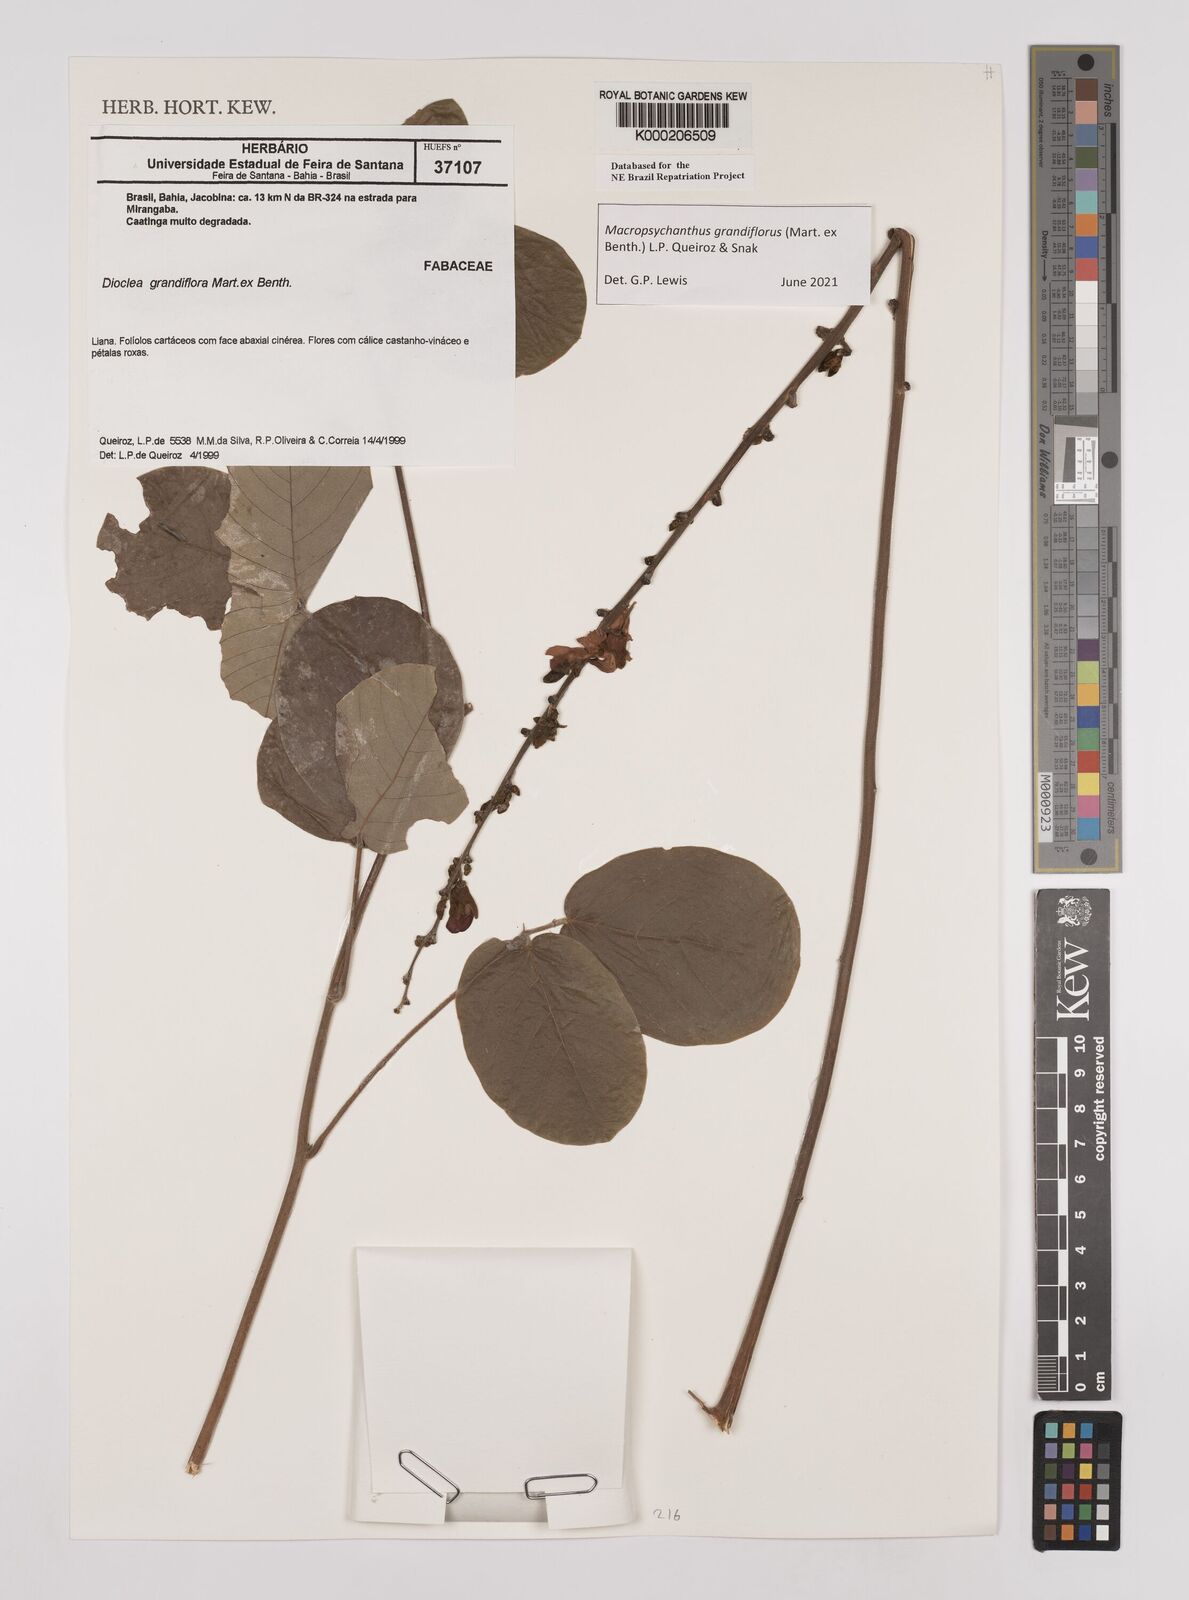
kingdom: Plantae
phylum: Tracheophyta
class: Magnoliopsida
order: Fabales
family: Fabaceae
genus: Macropsychanthus
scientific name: Macropsychanthus grandiflorus
